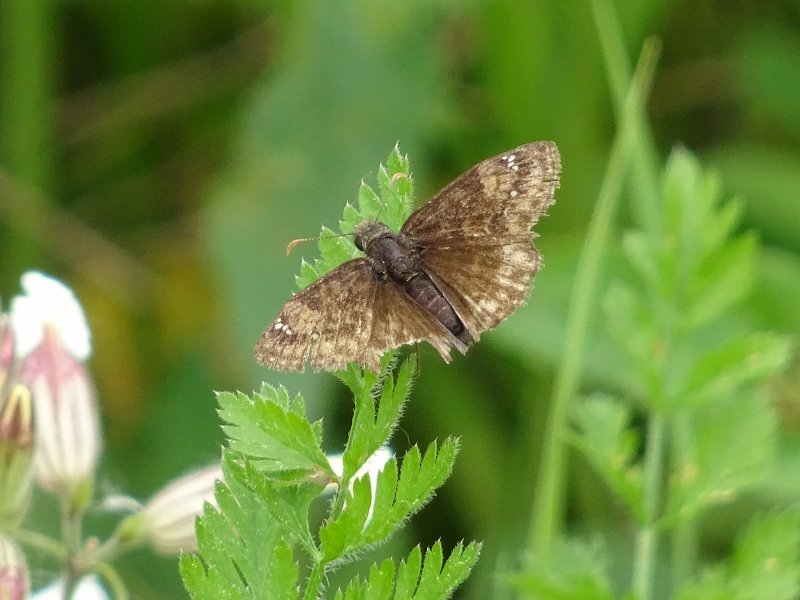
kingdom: Animalia
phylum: Arthropoda
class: Insecta
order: Lepidoptera
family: Hesperiidae
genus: Gesta
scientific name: Gesta
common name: Wild Indigo Duskywing
